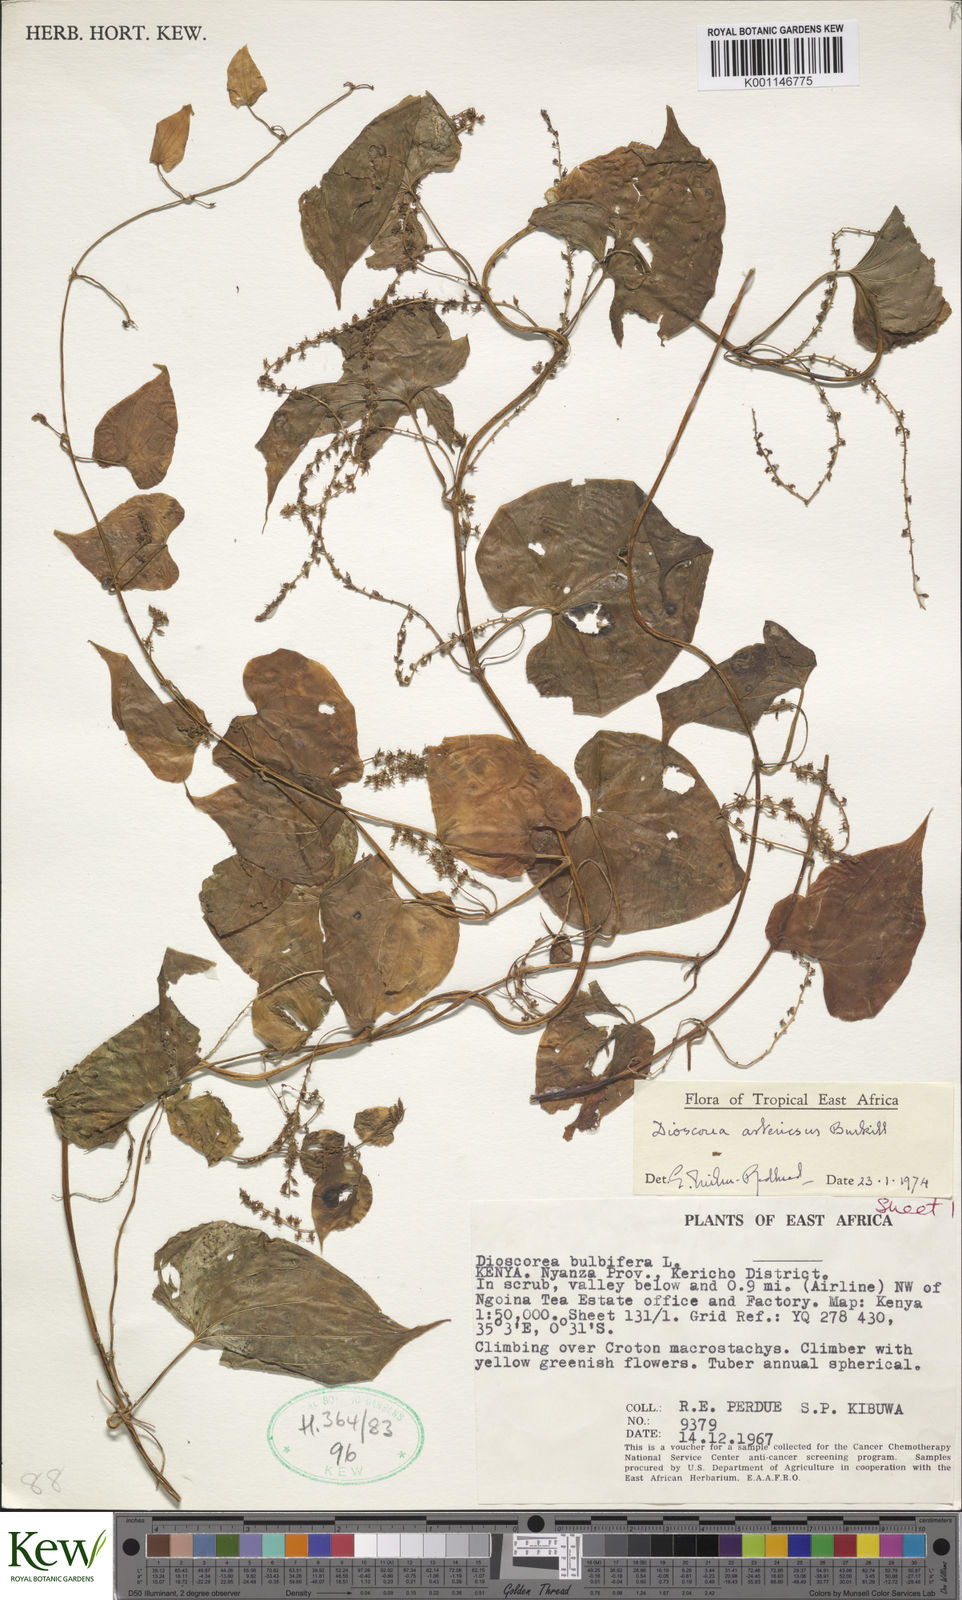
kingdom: Plantae
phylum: Tracheophyta
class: Liliopsida
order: Dioscoreales
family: Dioscoreaceae
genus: Dioscorea
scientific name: Dioscorea asteriscus
